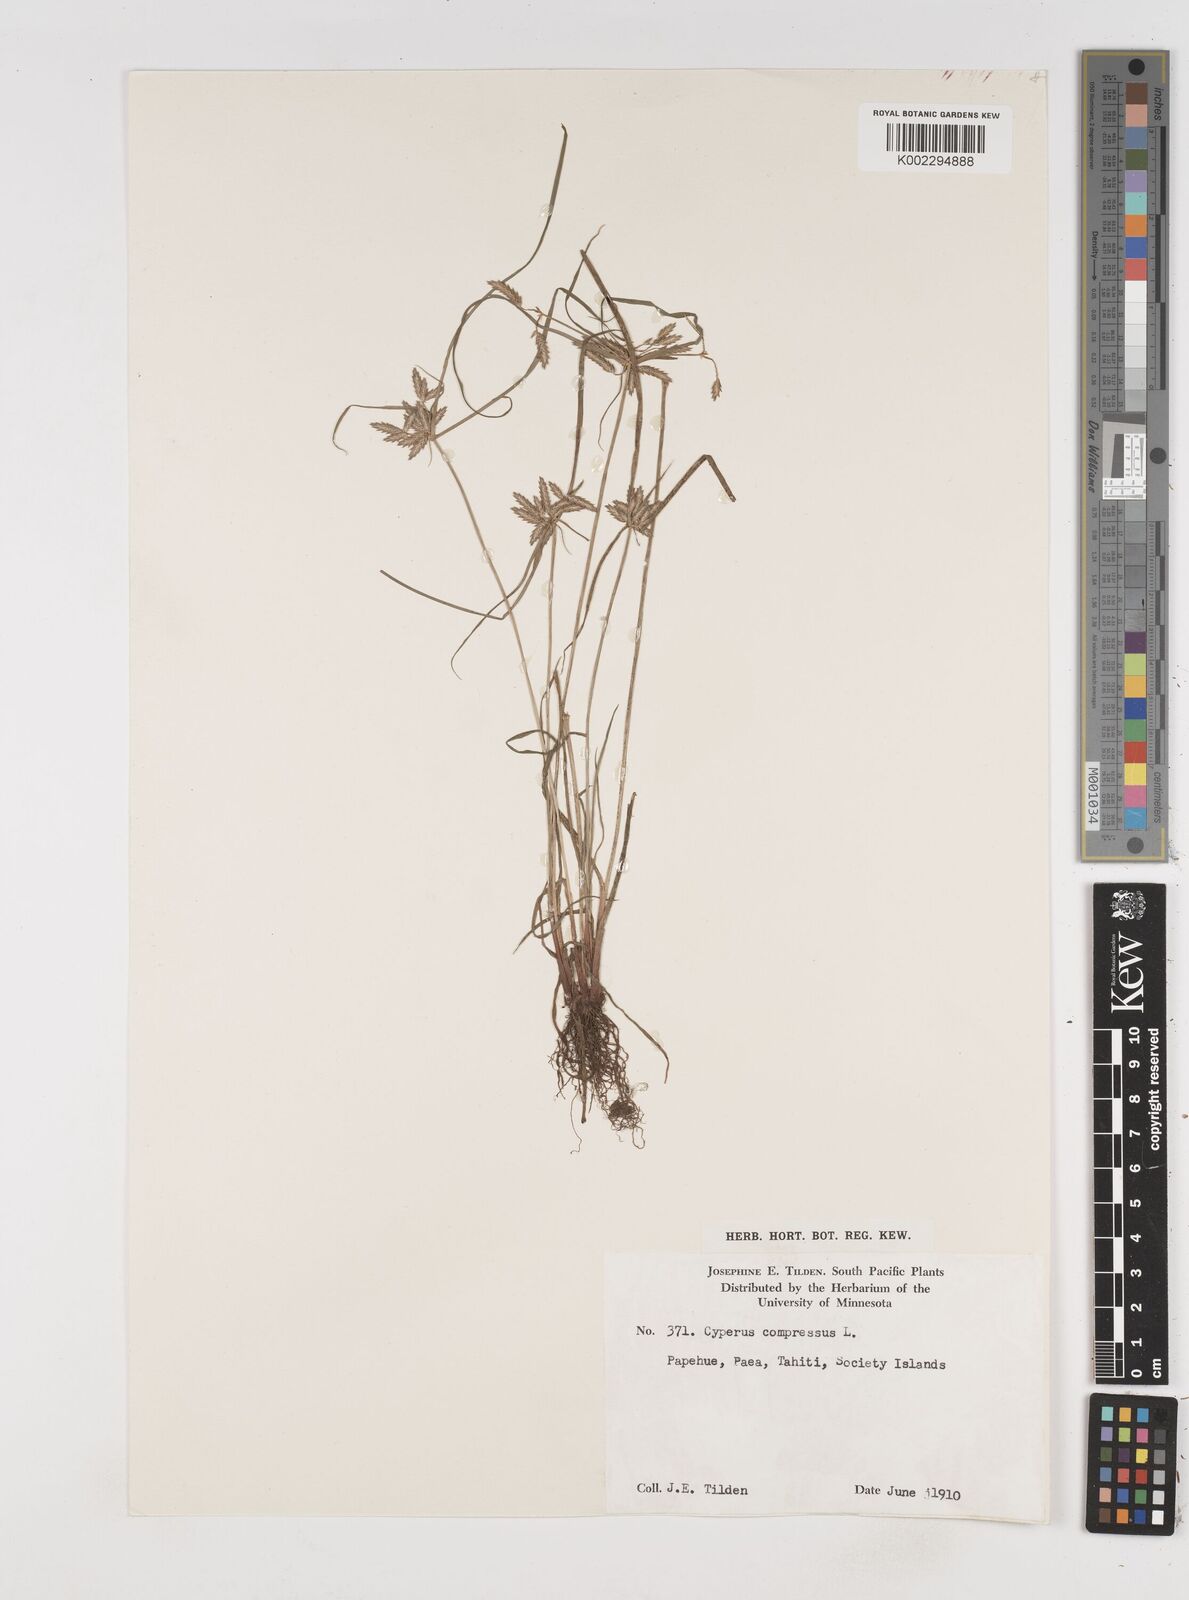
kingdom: Plantae
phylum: Tracheophyta
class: Liliopsida
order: Poales
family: Cyperaceae
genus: Cyperus
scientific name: Cyperus compressus
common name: Poorland flatsedge
